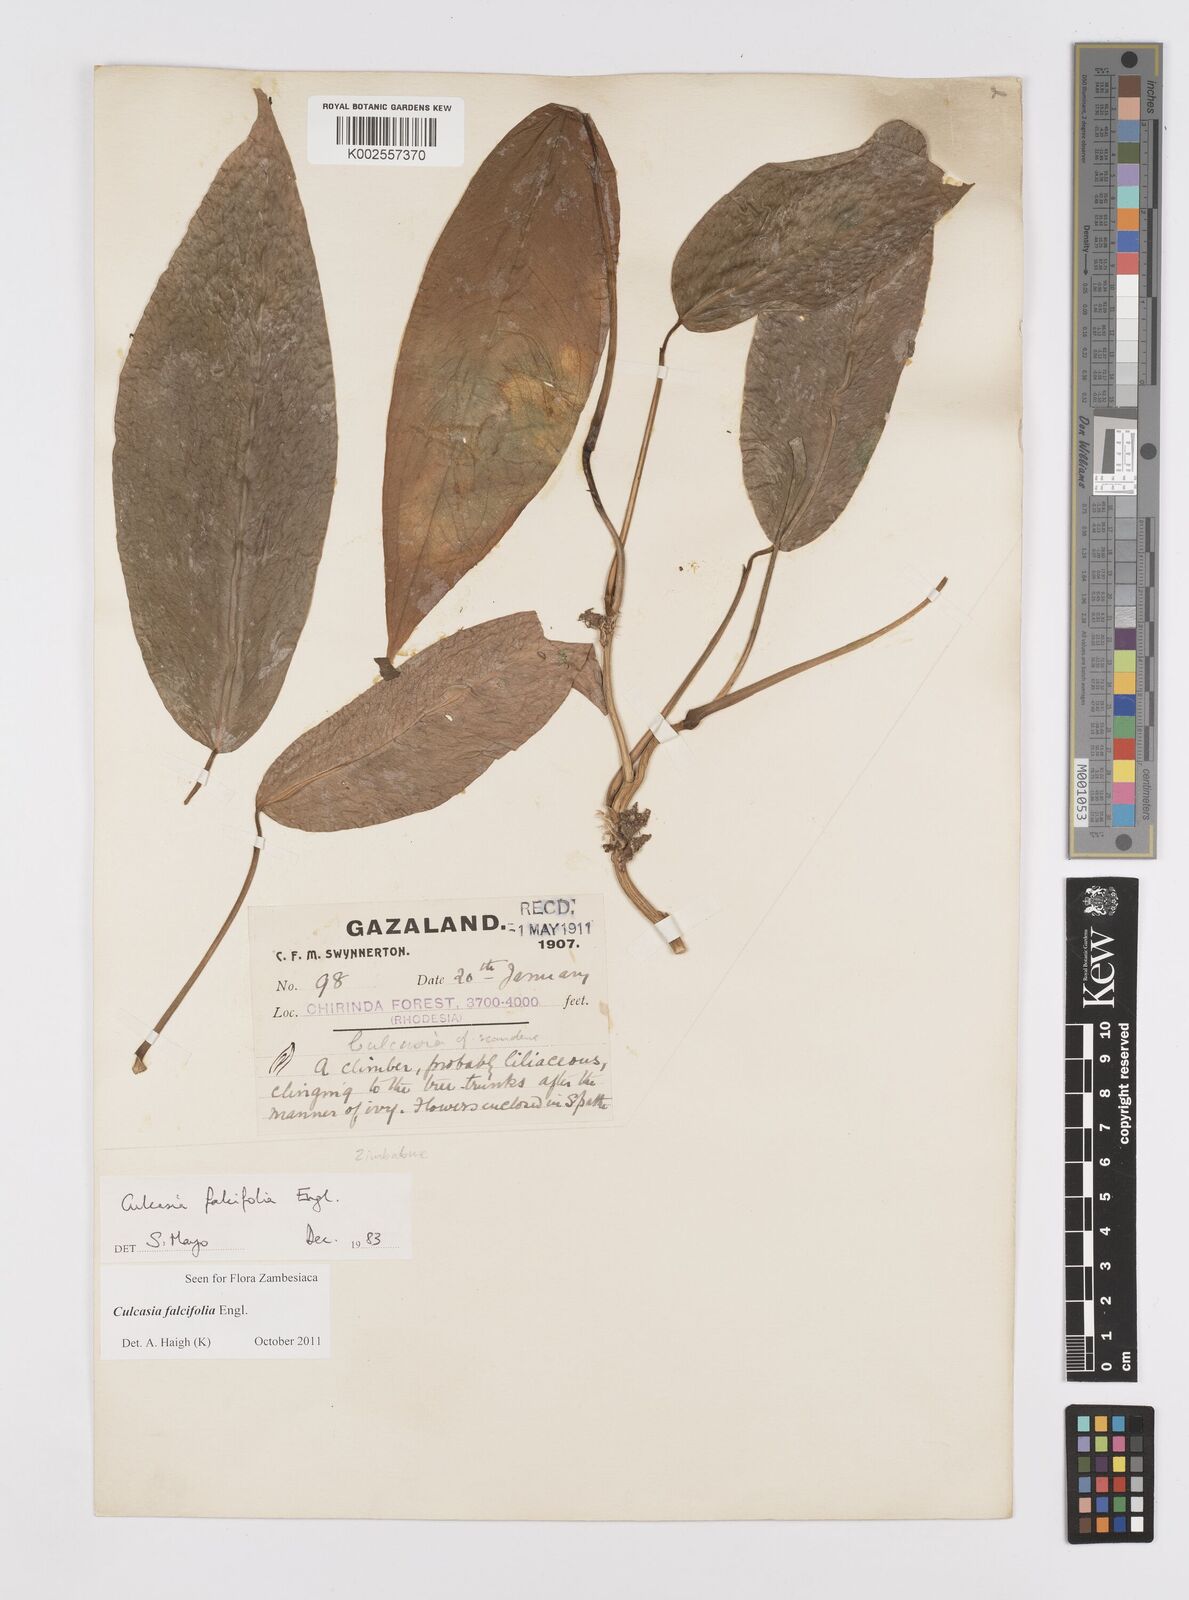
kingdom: Plantae
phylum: Tracheophyta
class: Liliopsida
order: Alismatales
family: Araceae
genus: Culcasia
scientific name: Culcasia falcifolia
